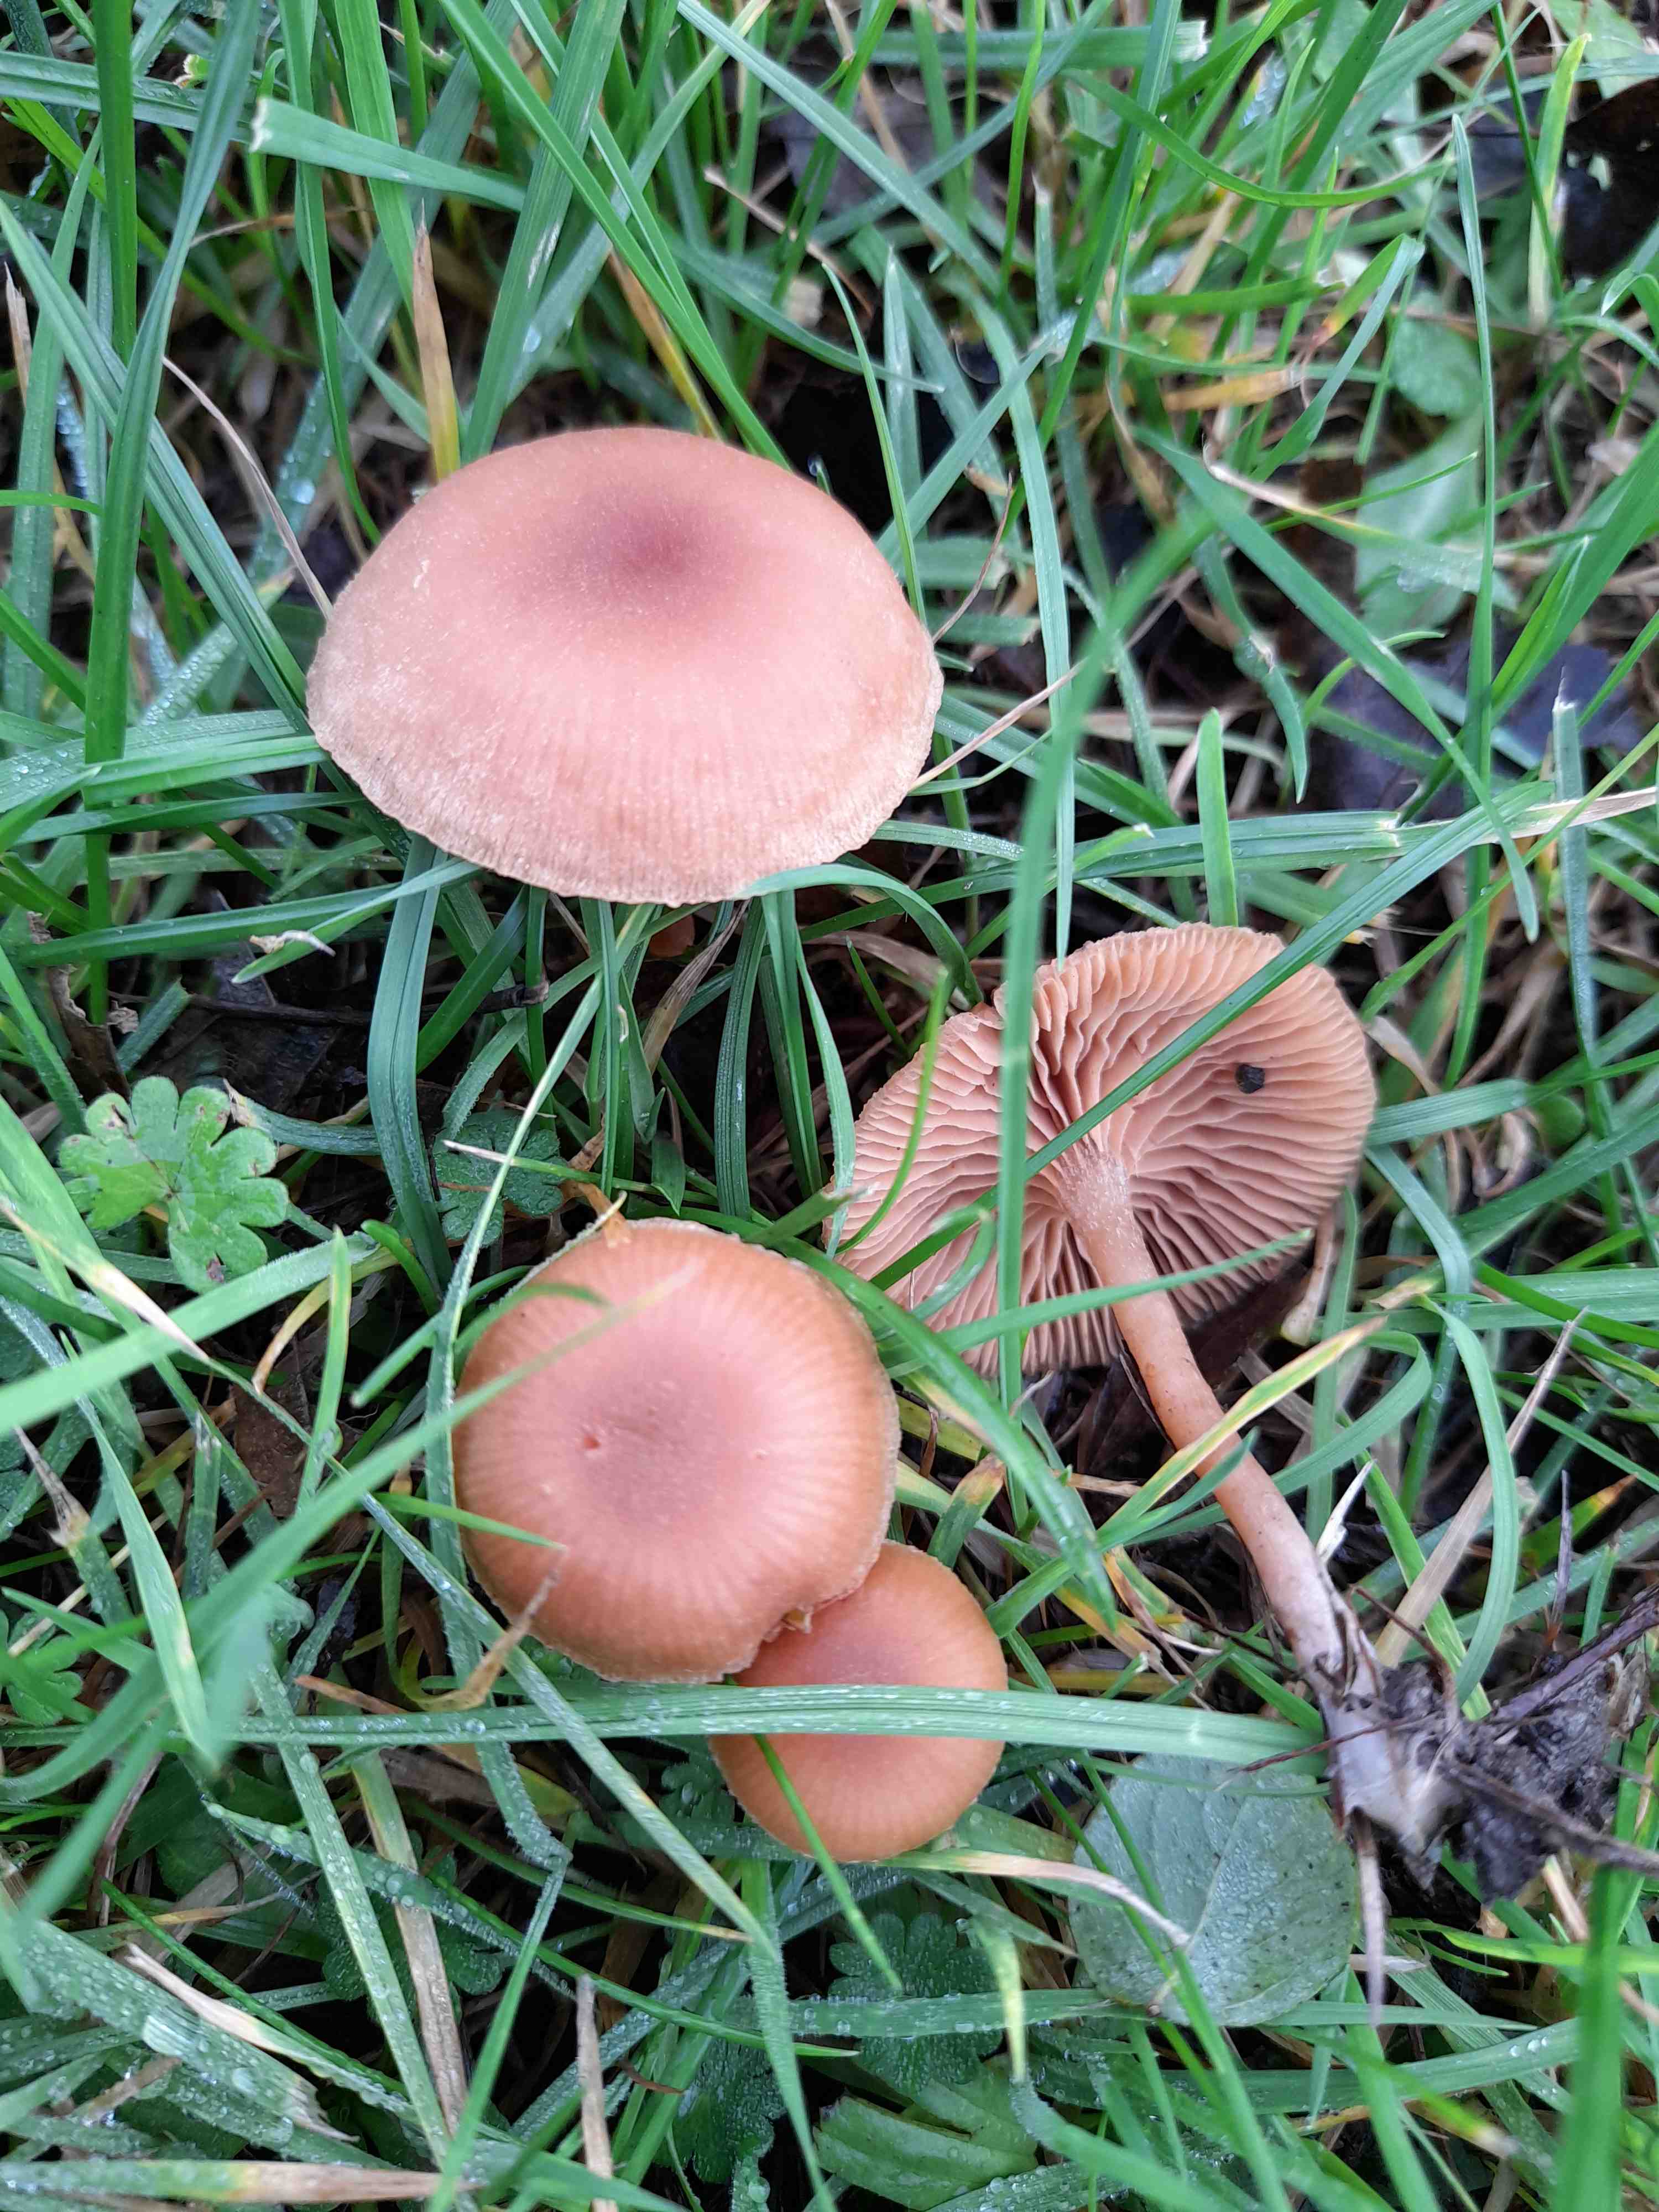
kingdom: Fungi
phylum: Basidiomycota
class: Agaricomycetes
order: Agaricales
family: Tubariaceae
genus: Tubaria
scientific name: Tubaria furfuracea
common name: kliddet fnughat
